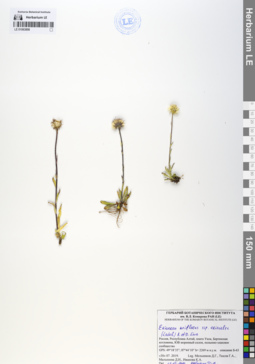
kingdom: Plantae
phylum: Tracheophyta
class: Magnoliopsida
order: Asterales
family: Asteraceae
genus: Erigeron
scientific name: Erigeron eriocalyx
